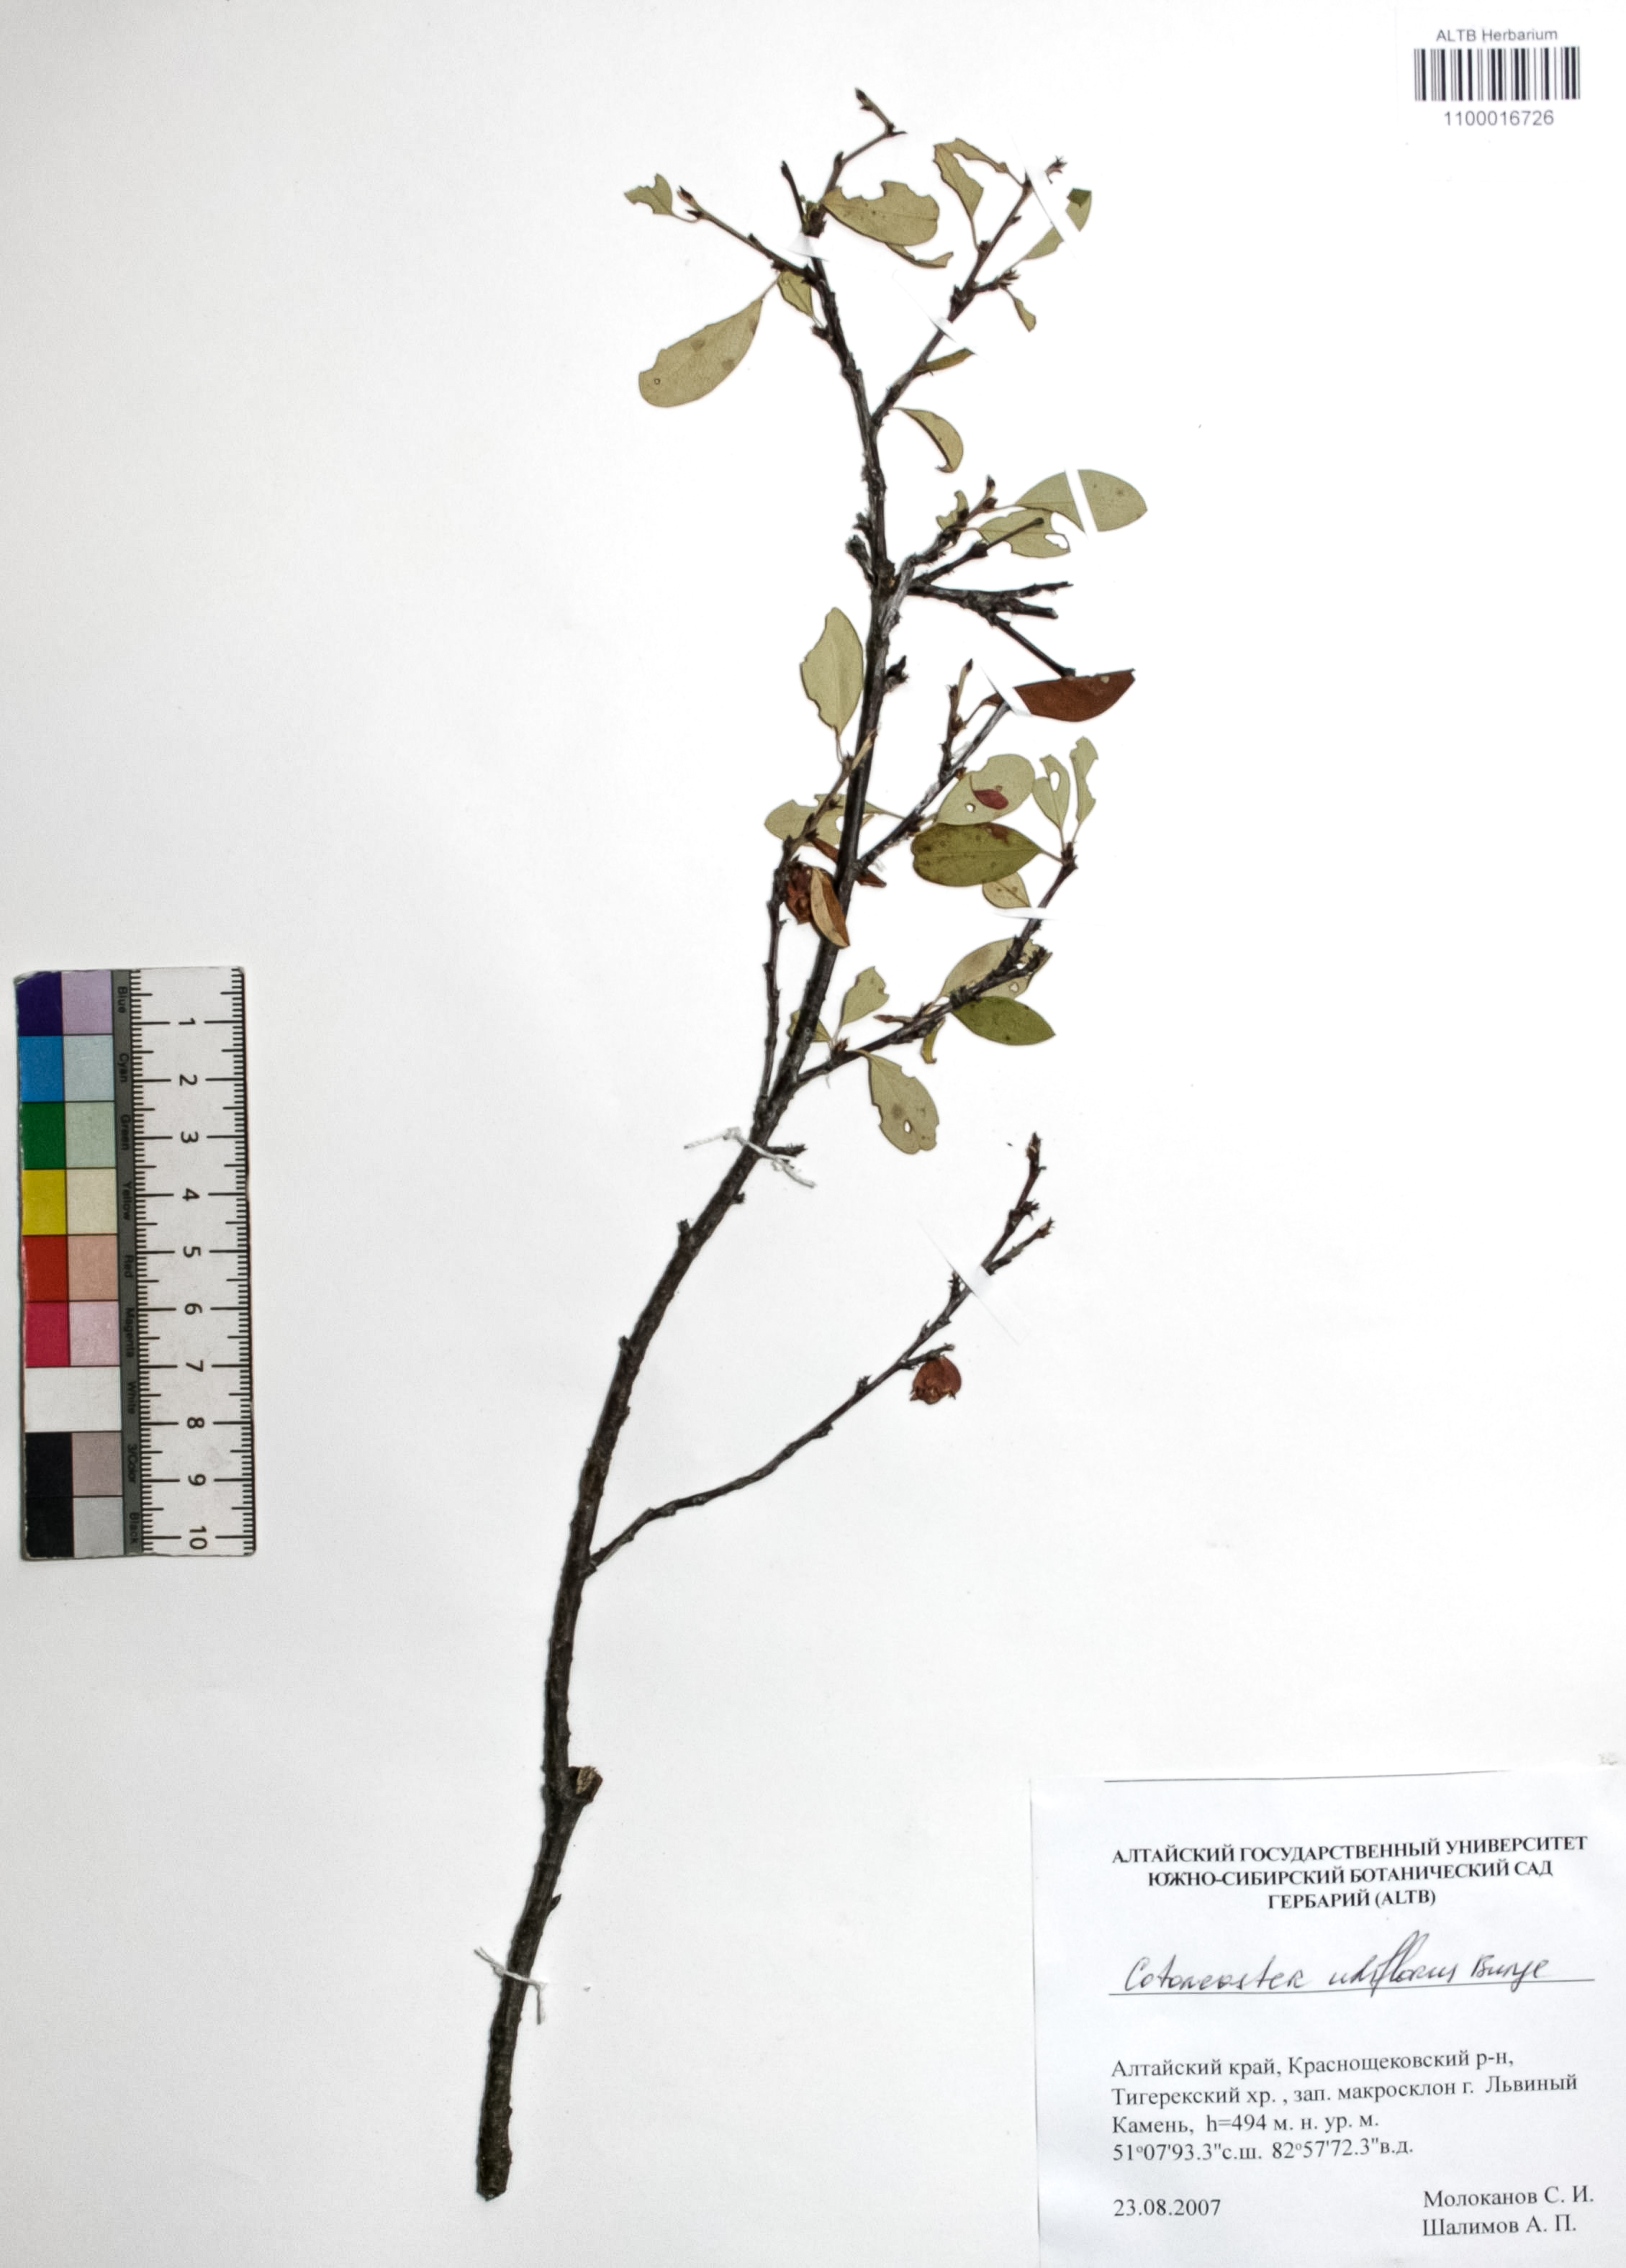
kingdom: Plantae
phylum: Tracheophyta
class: Magnoliopsida
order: Rosales
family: Rosaceae
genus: Cotoneaster
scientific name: Cotoneaster uniflorus
